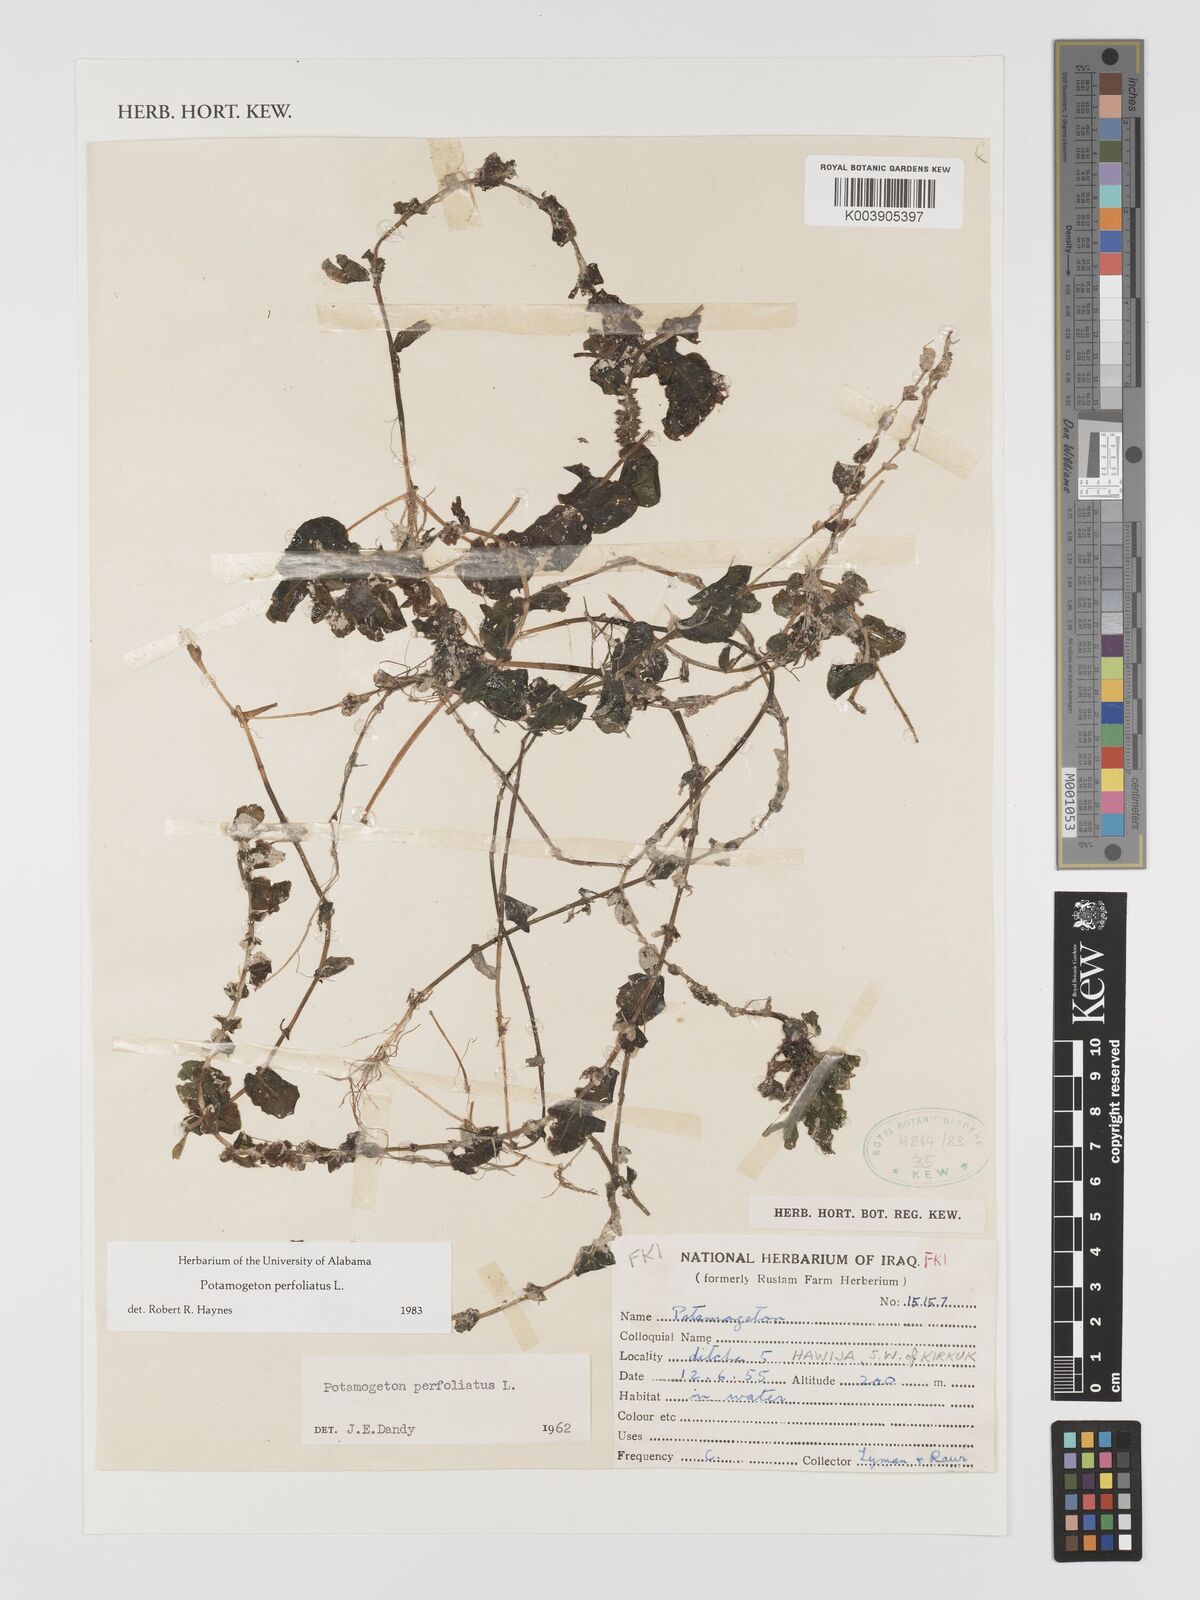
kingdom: Plantae
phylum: Tracheophyta
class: Liliopsida
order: Alismatales
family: Potamogetonaceae
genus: Potamogeton
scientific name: Potamogeton perfoliatus
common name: Perfoliate pondweed
